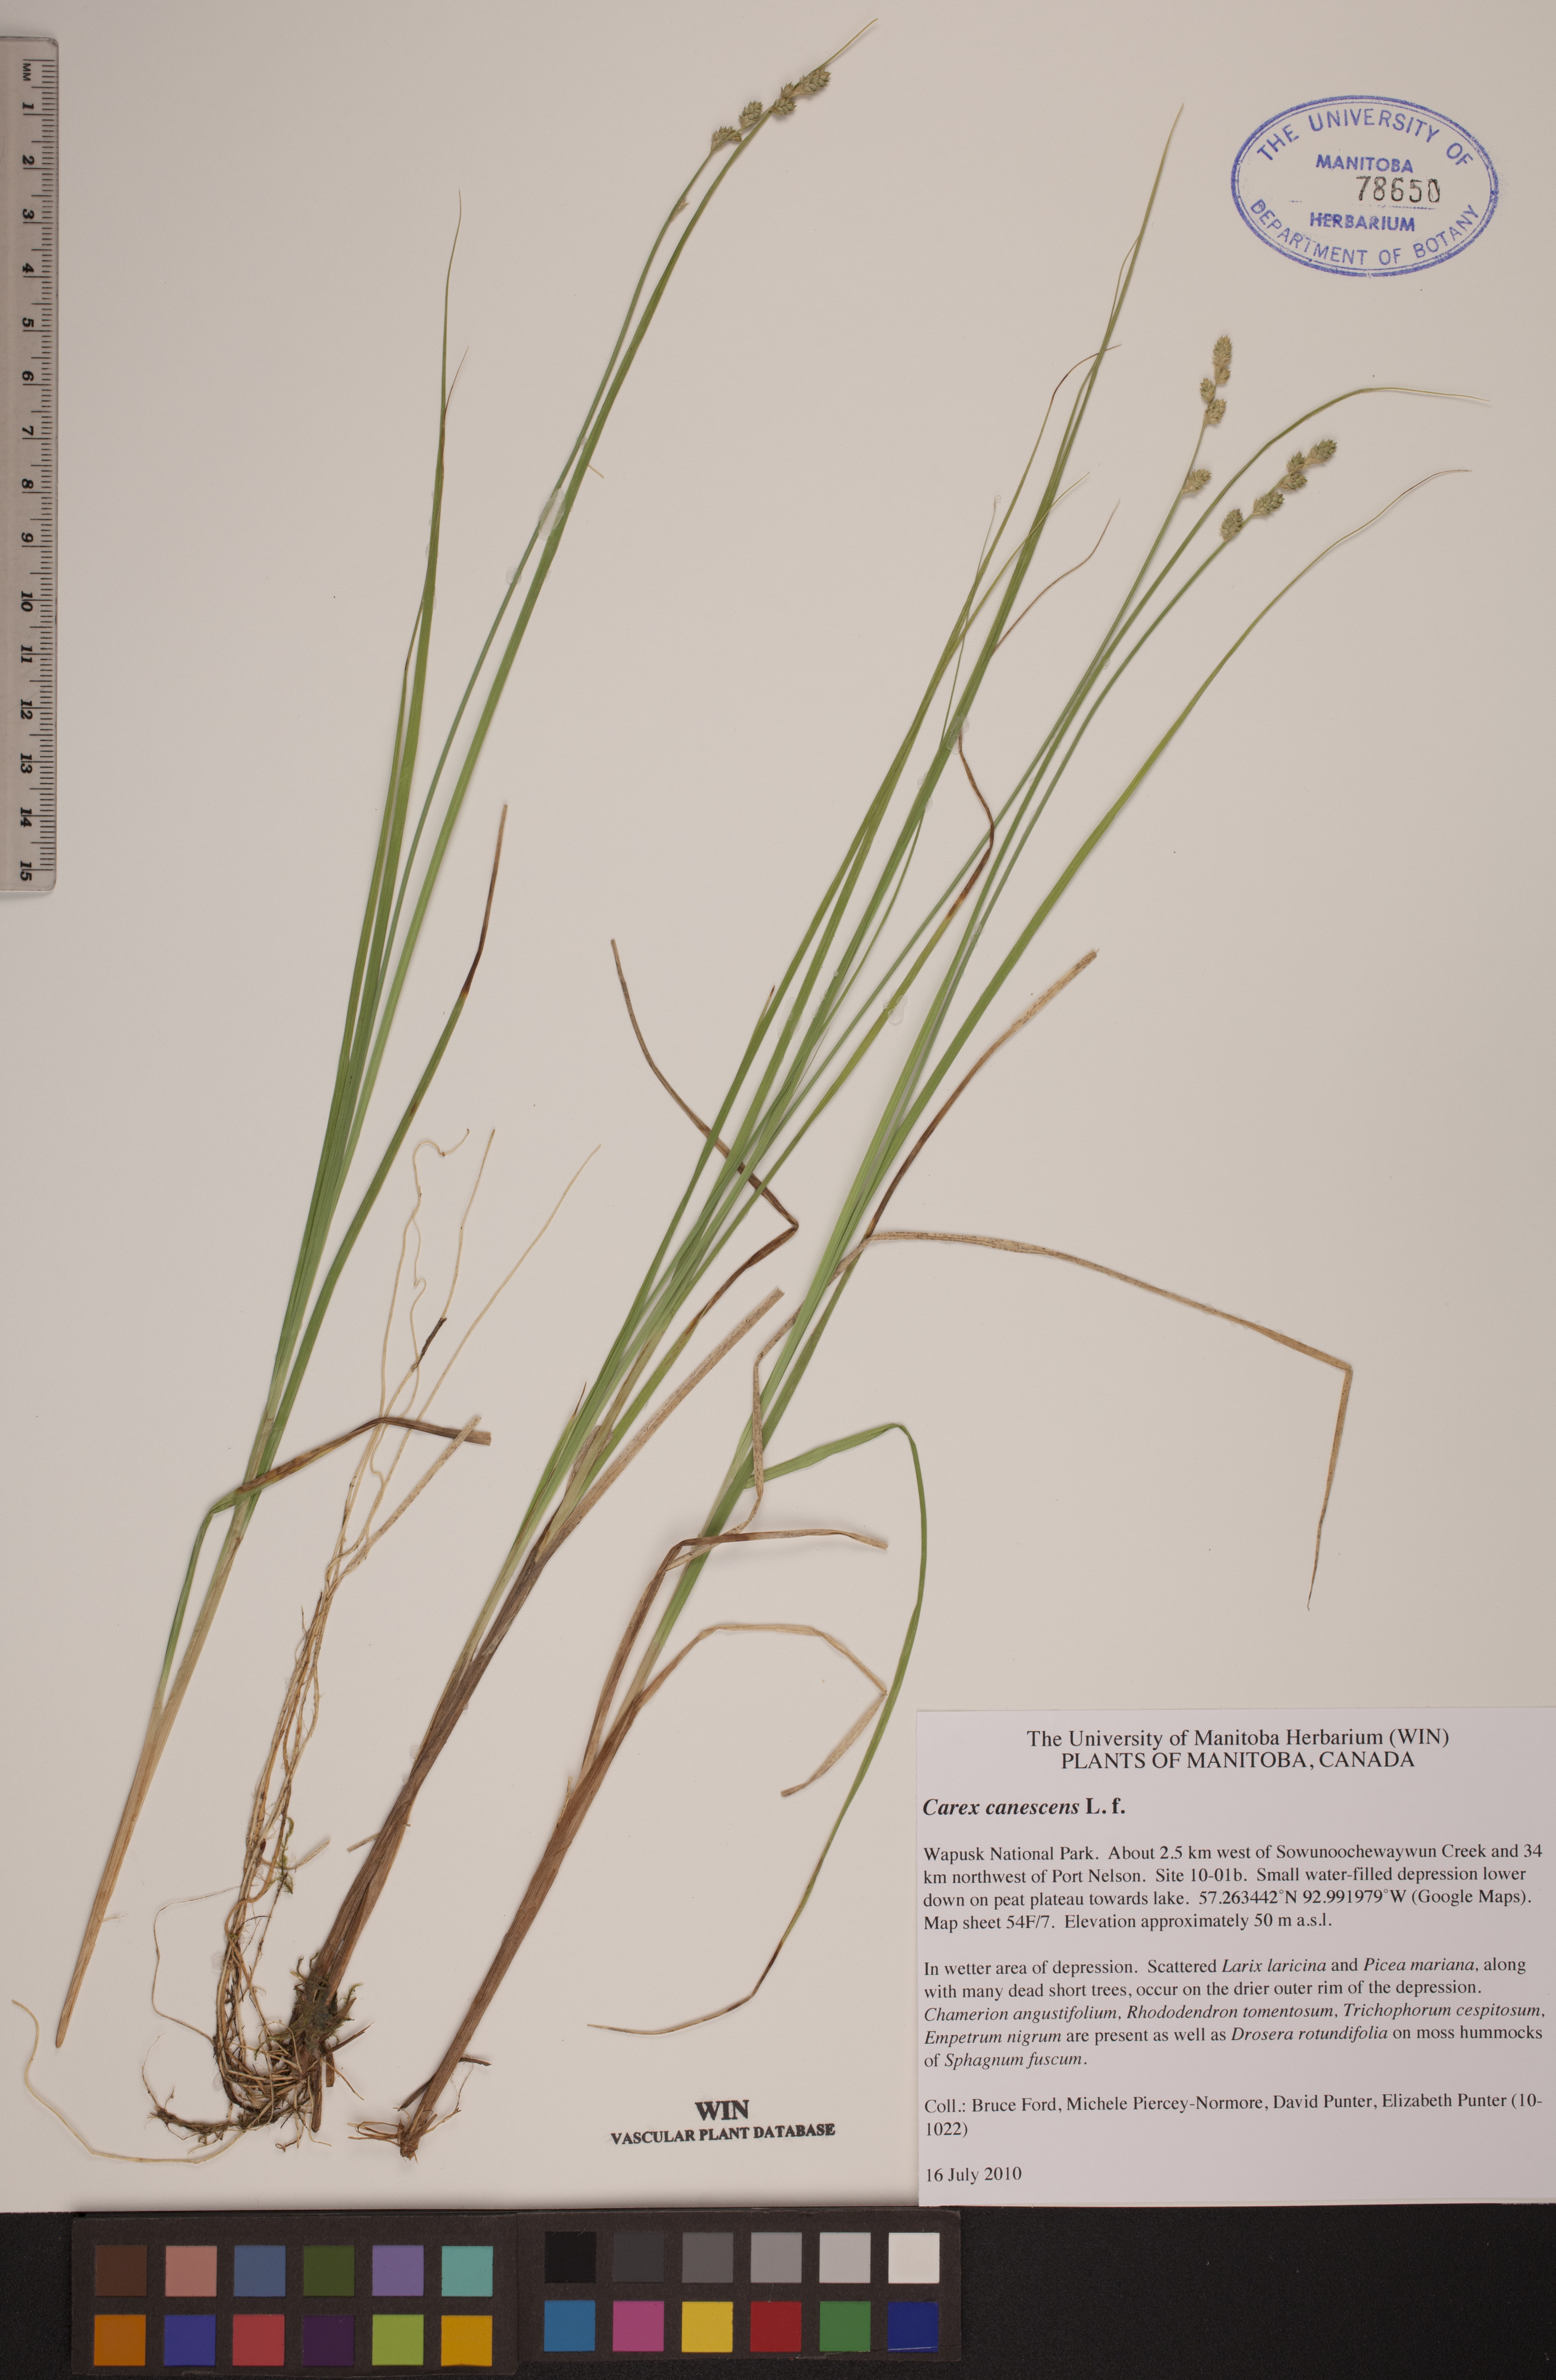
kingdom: Plantae
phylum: Tracheophyta
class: Liliopsida
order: Poales
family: Cyperaceae
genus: Carex
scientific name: Carex canescens
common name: White sedge
